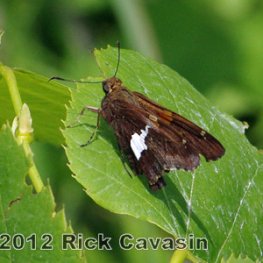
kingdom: Animalia
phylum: Arthropoda
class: Insecta
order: Lepidoptera
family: Hesperiidae
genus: Epargyreus
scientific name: Epargyreus clarus
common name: Silver-spotted Skipper
